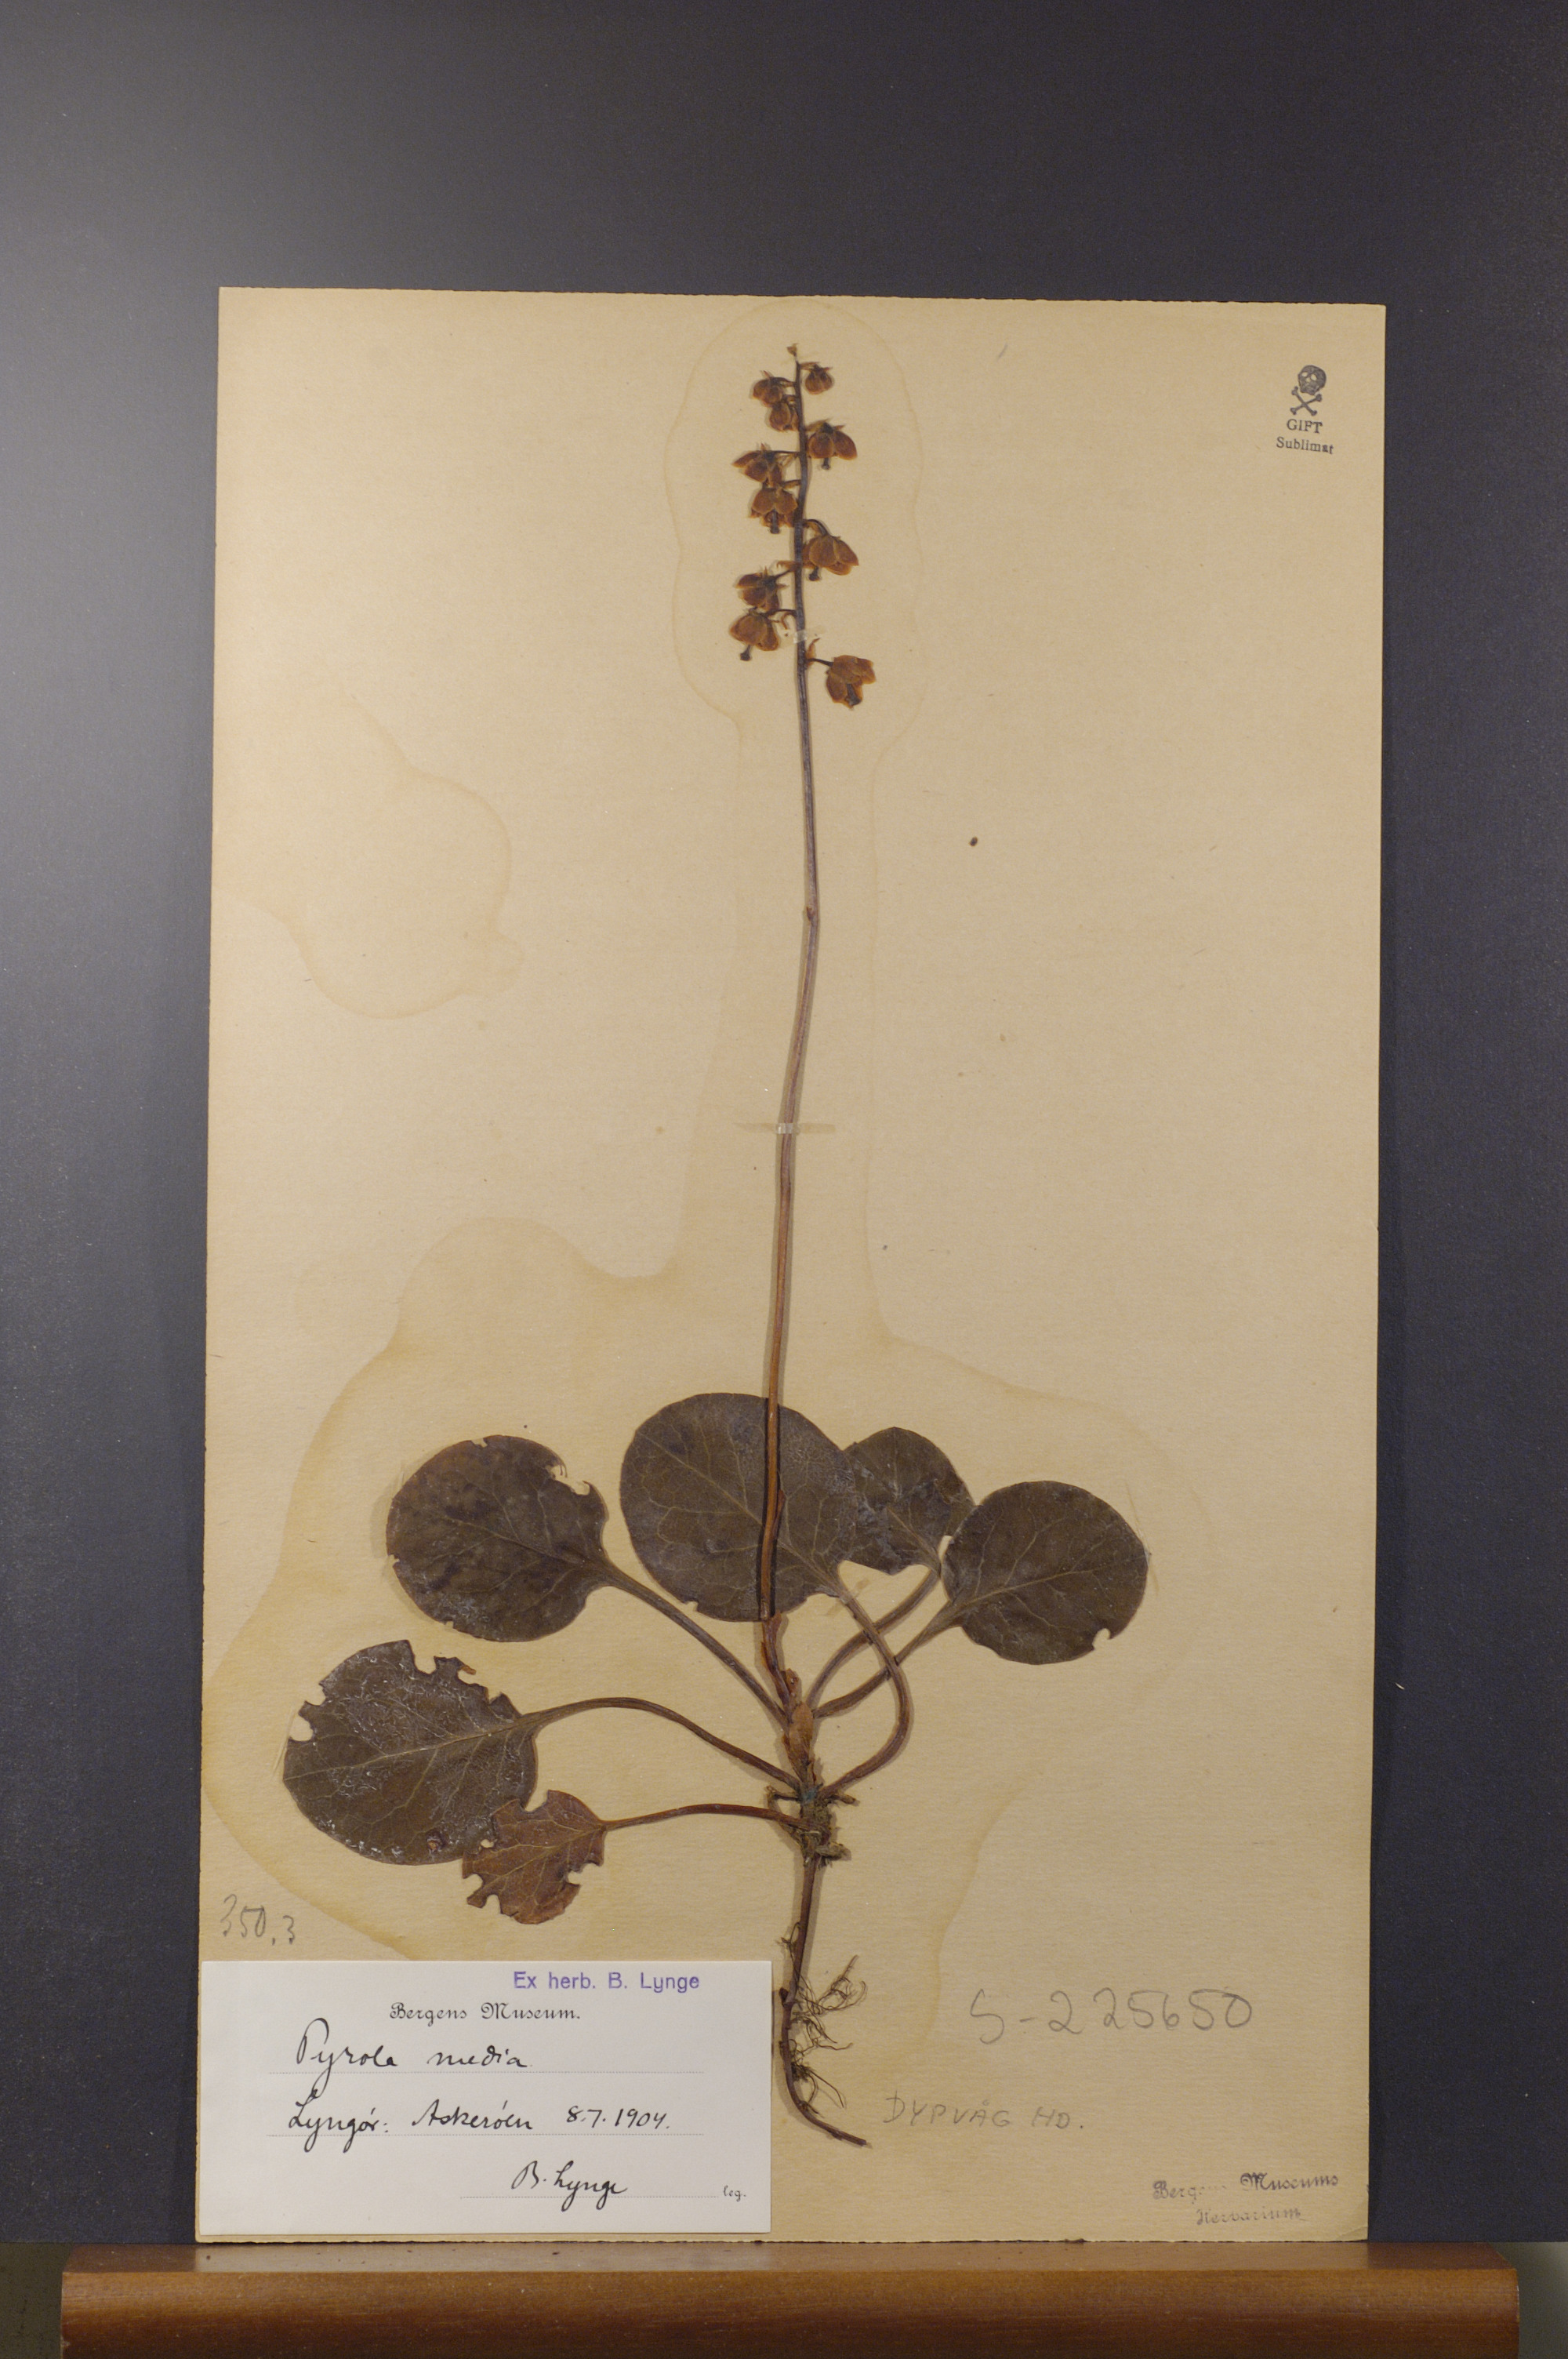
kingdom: Plantae
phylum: Tracheophyta
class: Magnoliopsida
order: Ericales
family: Ericaceae
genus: Pyrola
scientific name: Pyrola media
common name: Intermediate wintergreen
